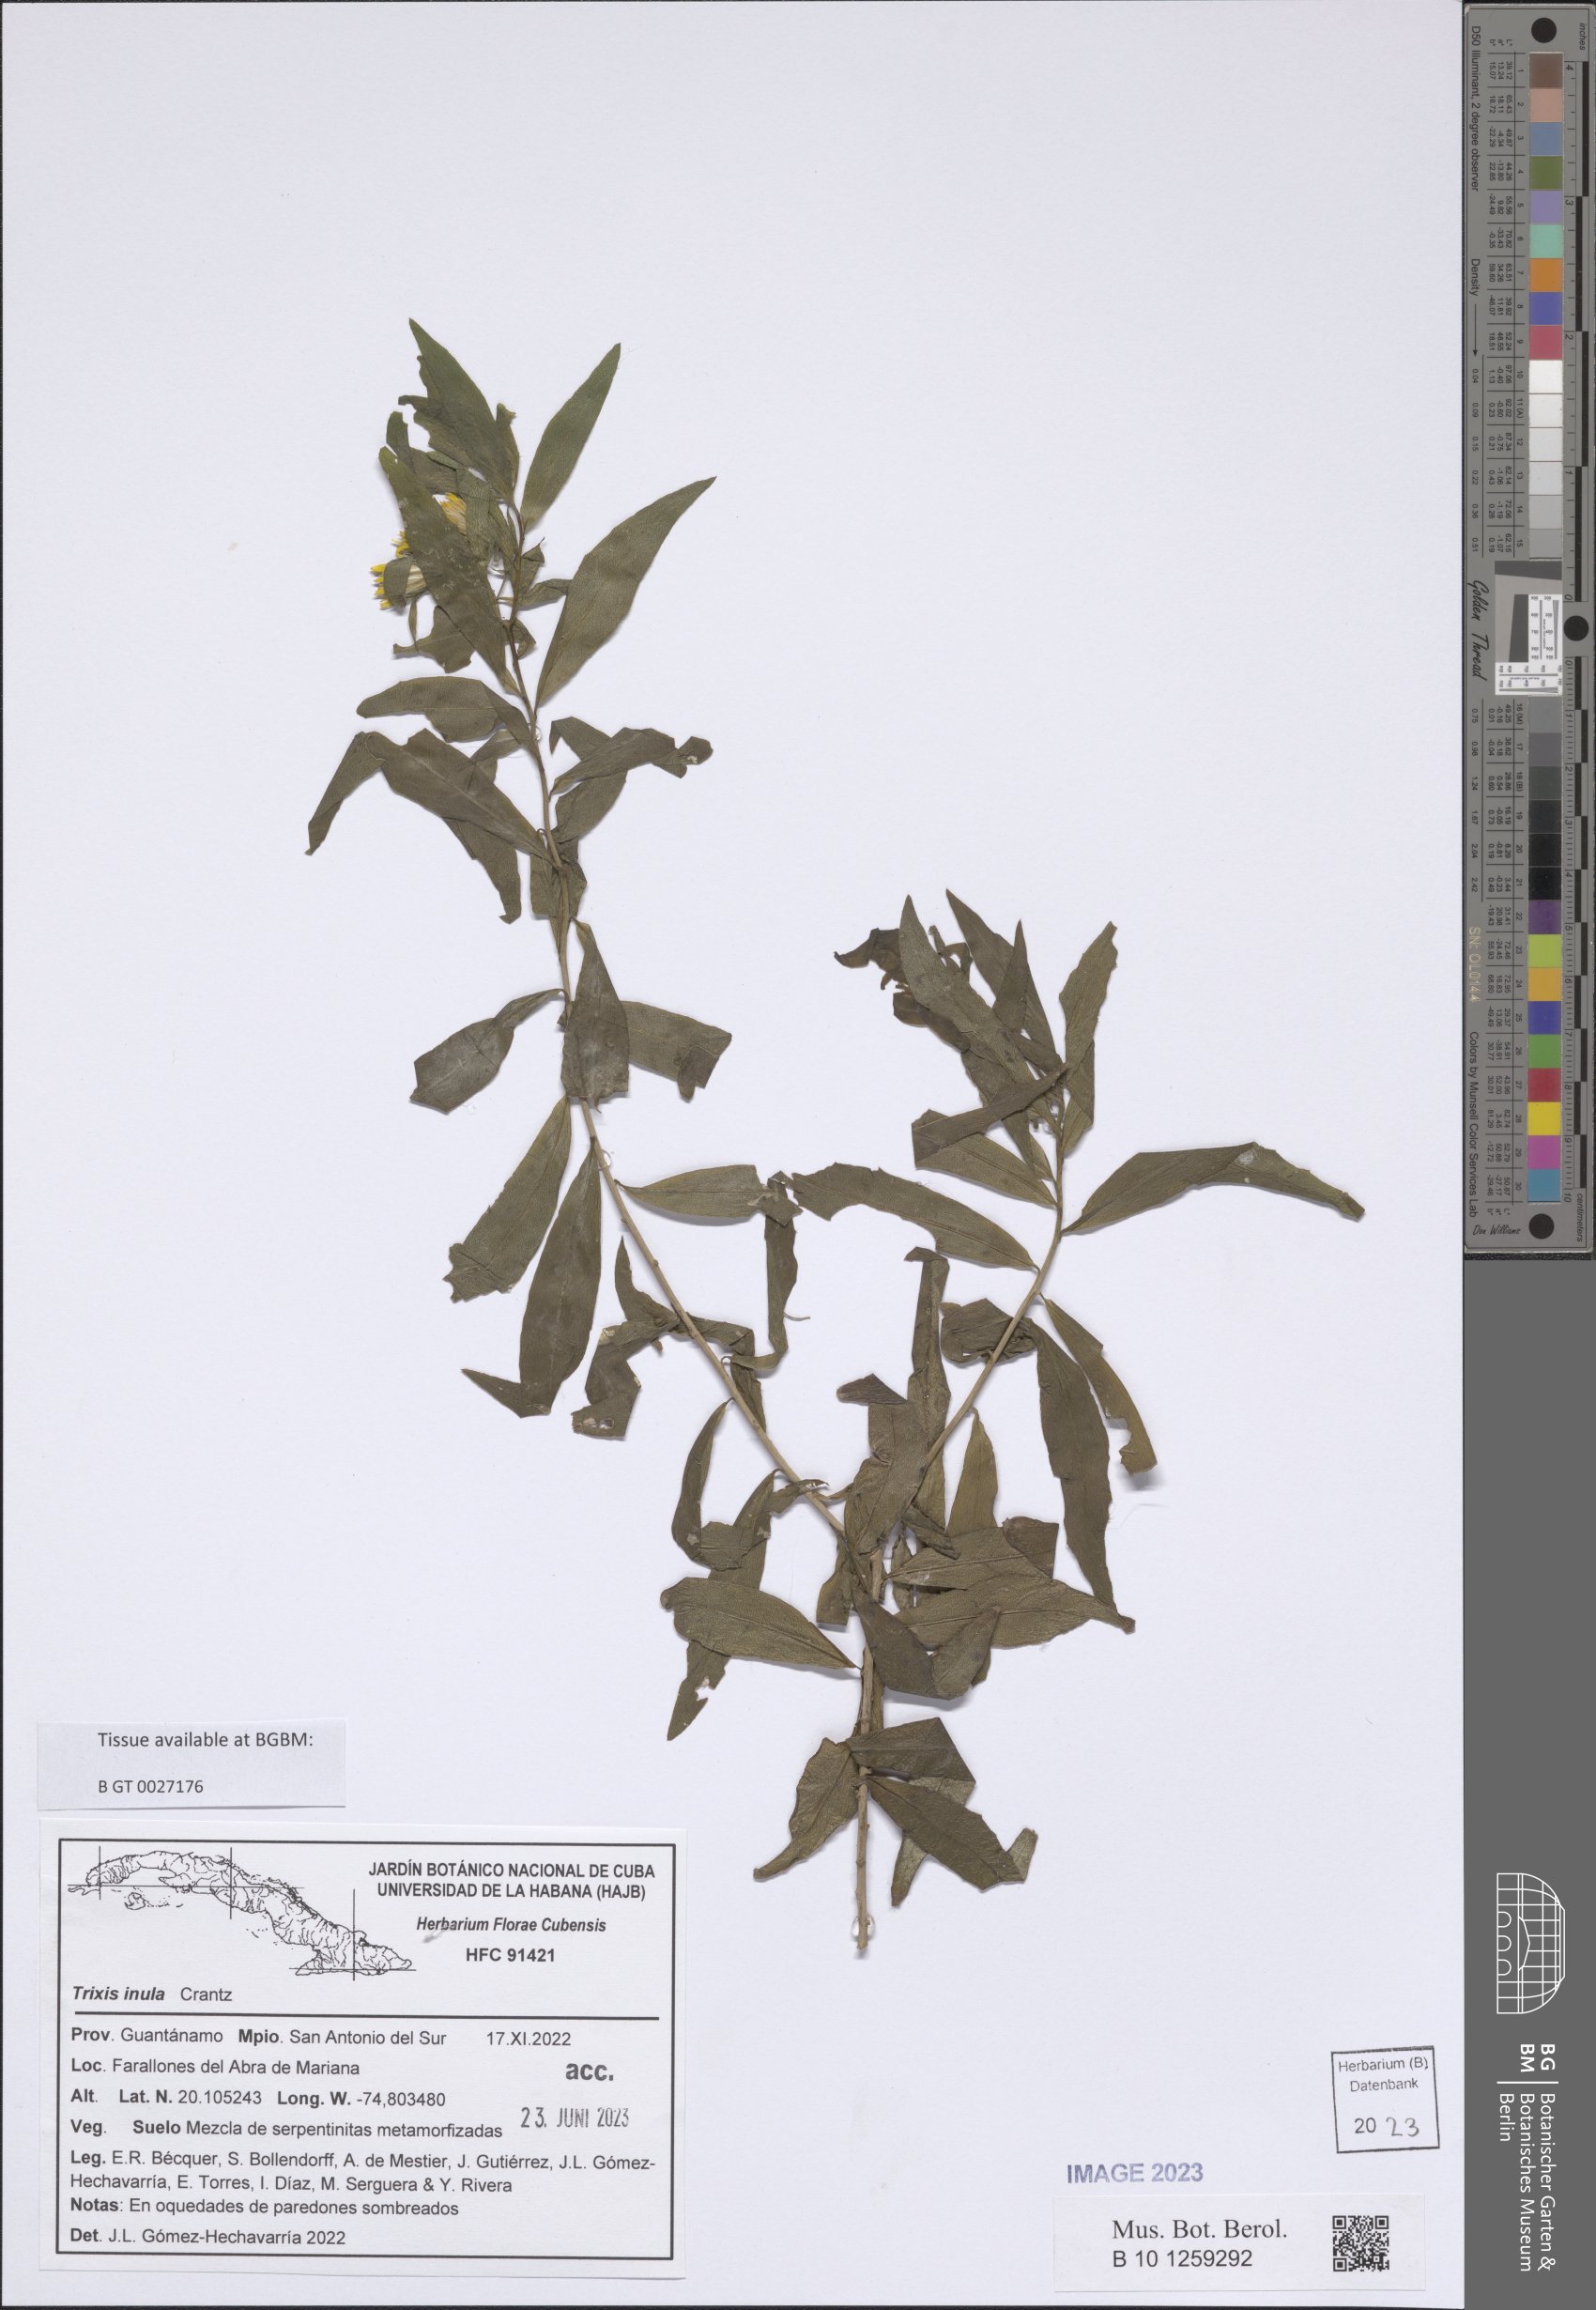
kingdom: Plantae
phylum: Tracheophyta
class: Magnoliopsida
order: Asterales
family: Asteraceae
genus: Trixis
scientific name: Trixis inula
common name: Tropical threefold
